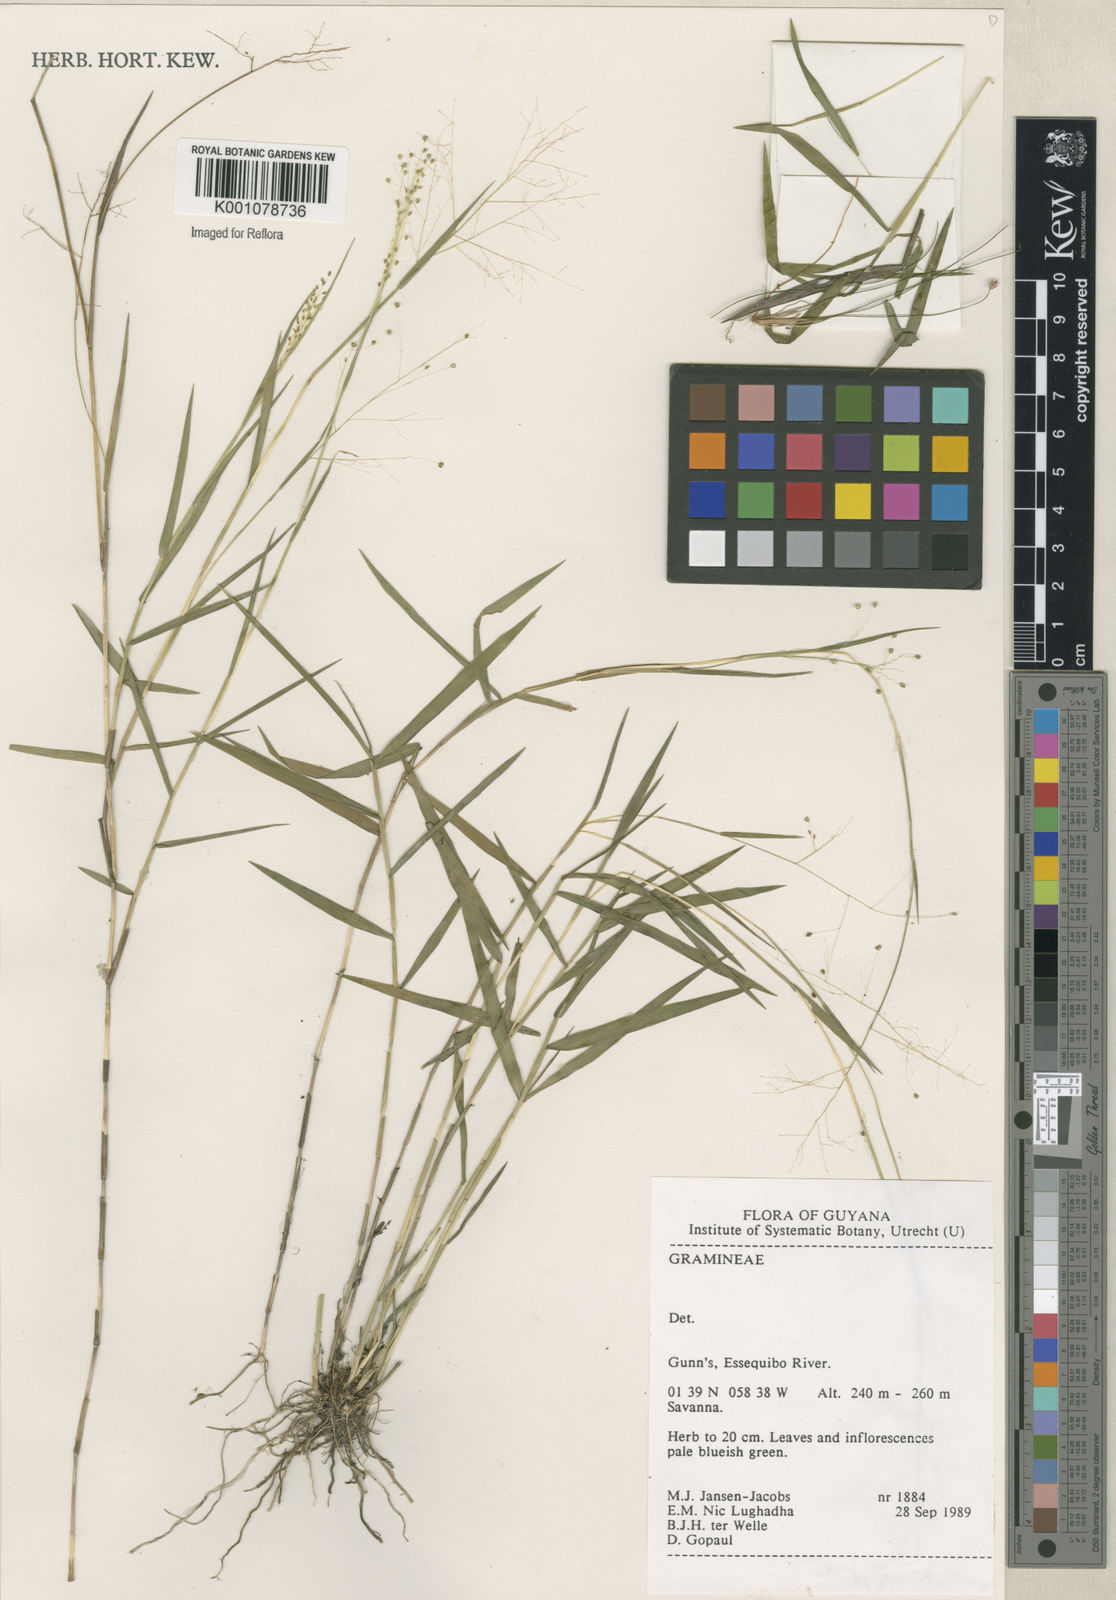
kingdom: Plantae
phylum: Tracheophyta
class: Liliopsida
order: Poales
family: Poaceae
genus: Panicum
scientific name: Panicum
